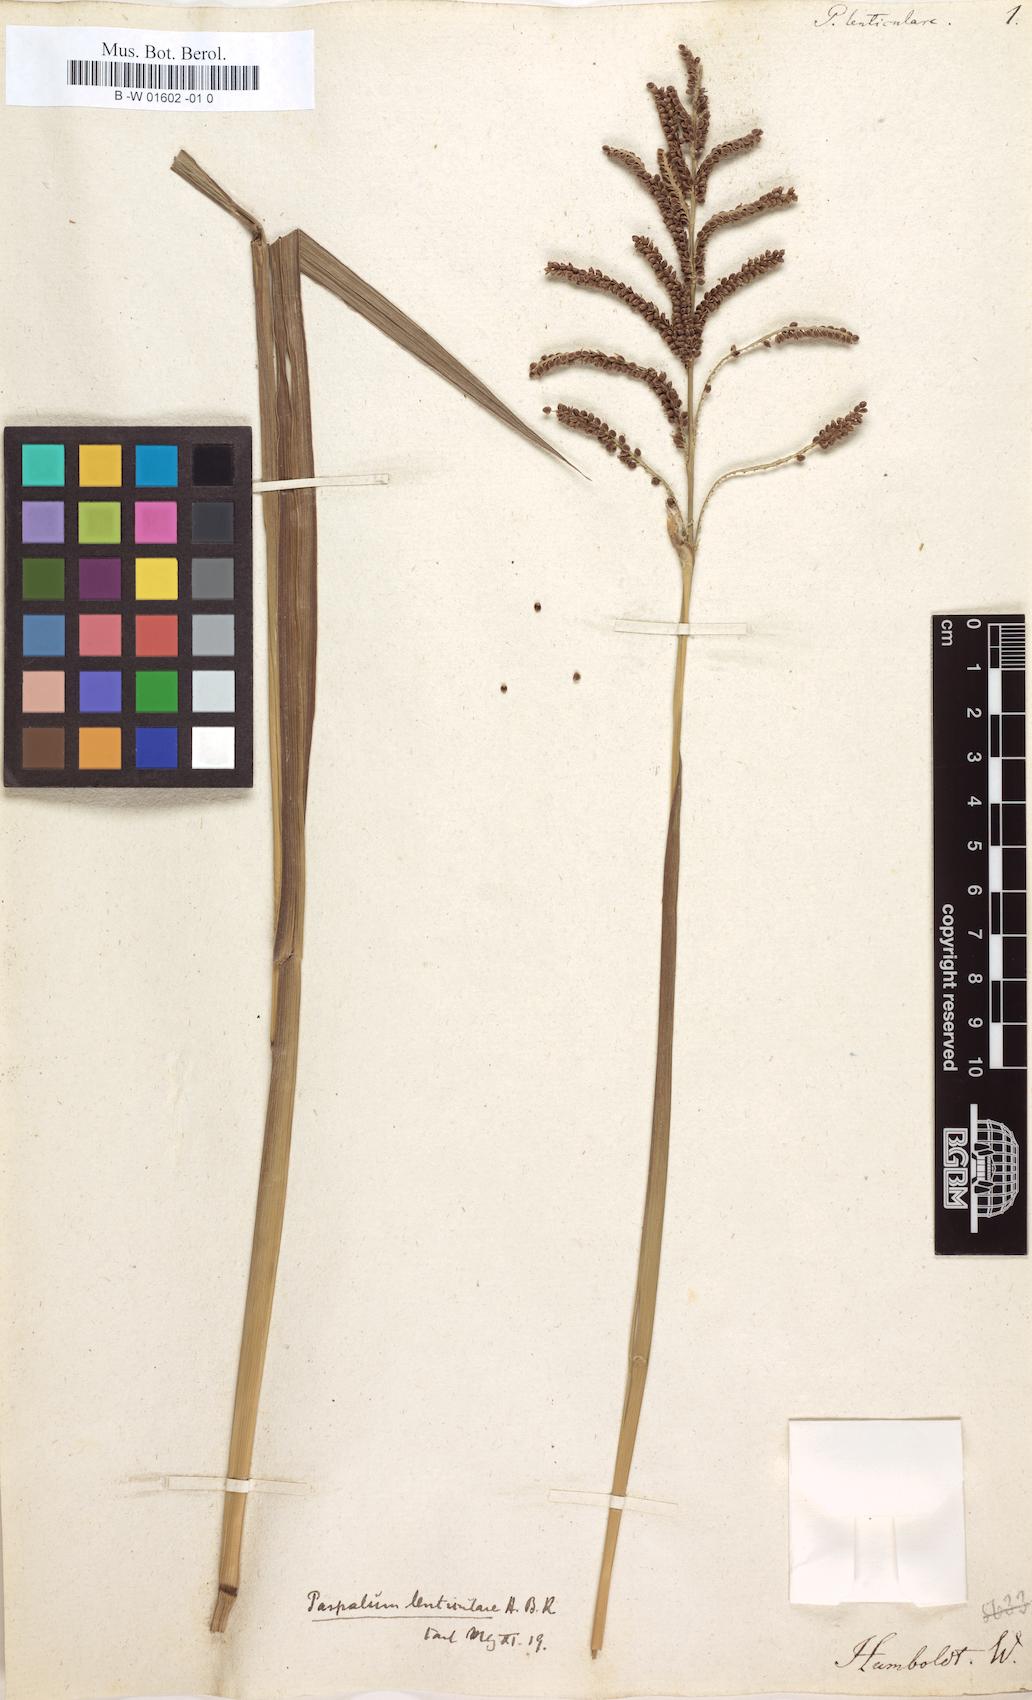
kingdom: Plantae
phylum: Tracheophyta
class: Liliopsida
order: Poales
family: Poaceae
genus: Paspalum
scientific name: Paspalum plicatulum
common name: Top paspalum
